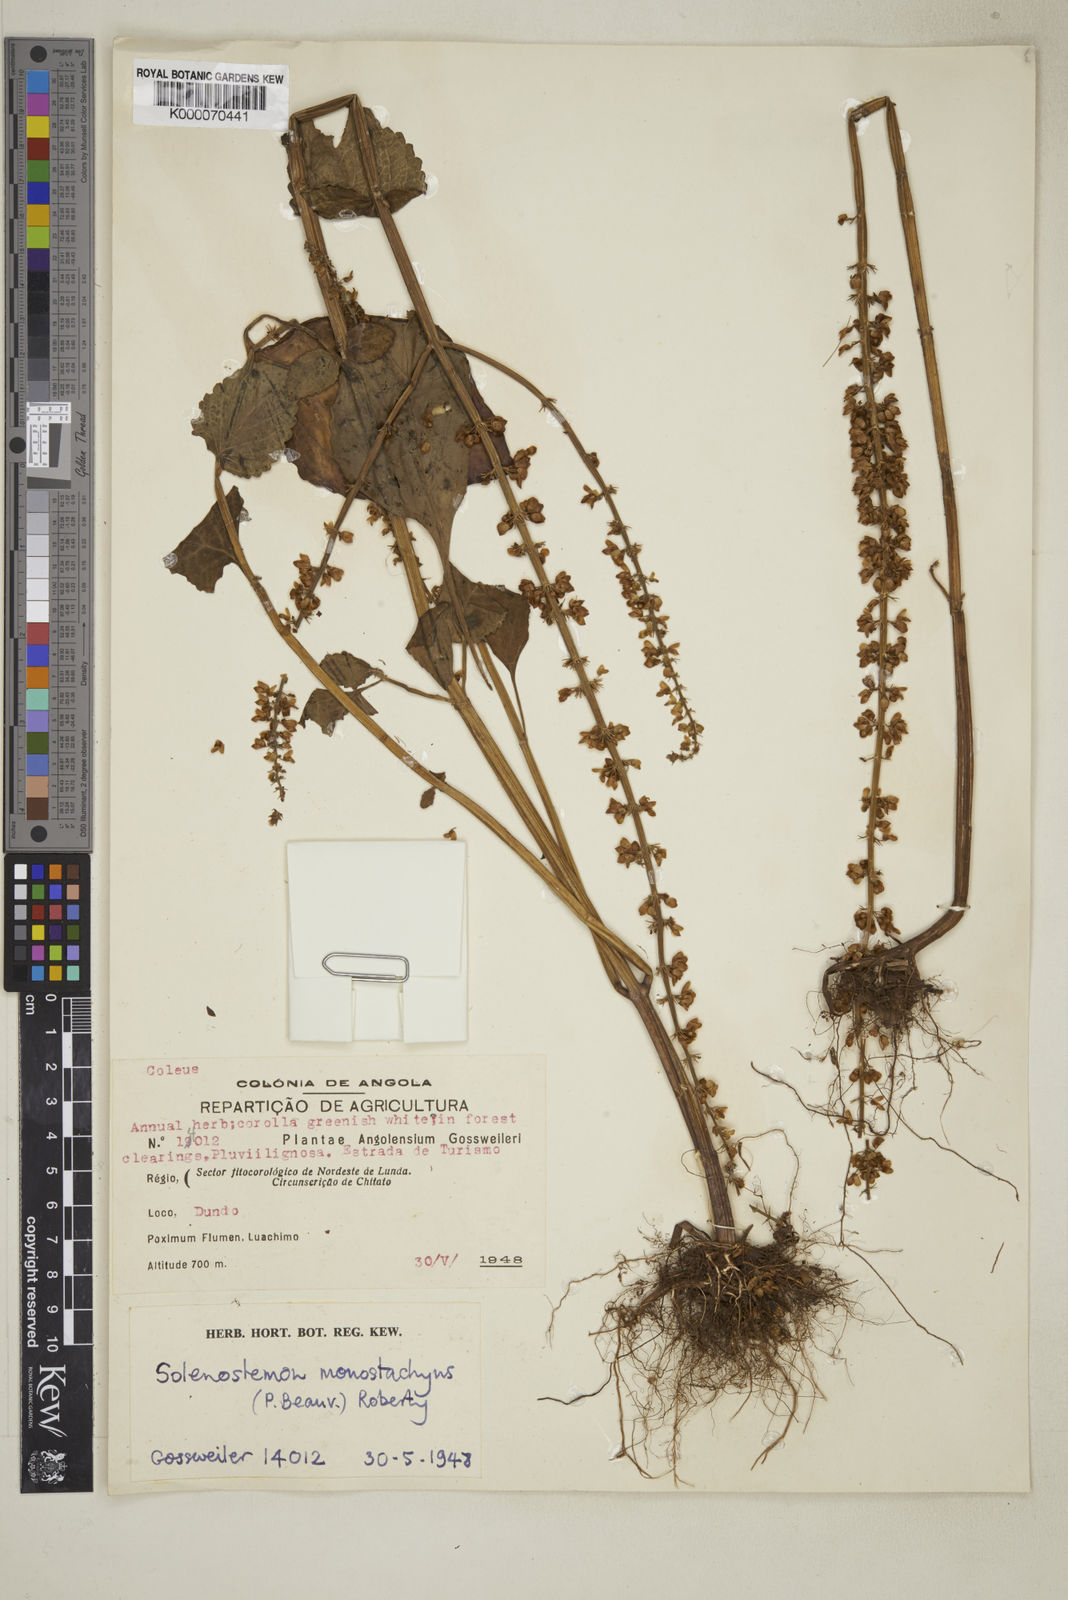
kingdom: Plantae
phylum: Tracheophyta
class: Magnoliopsida
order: Lamiales
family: Lamiaceae
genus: Coleus
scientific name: Coleus monostachyus
